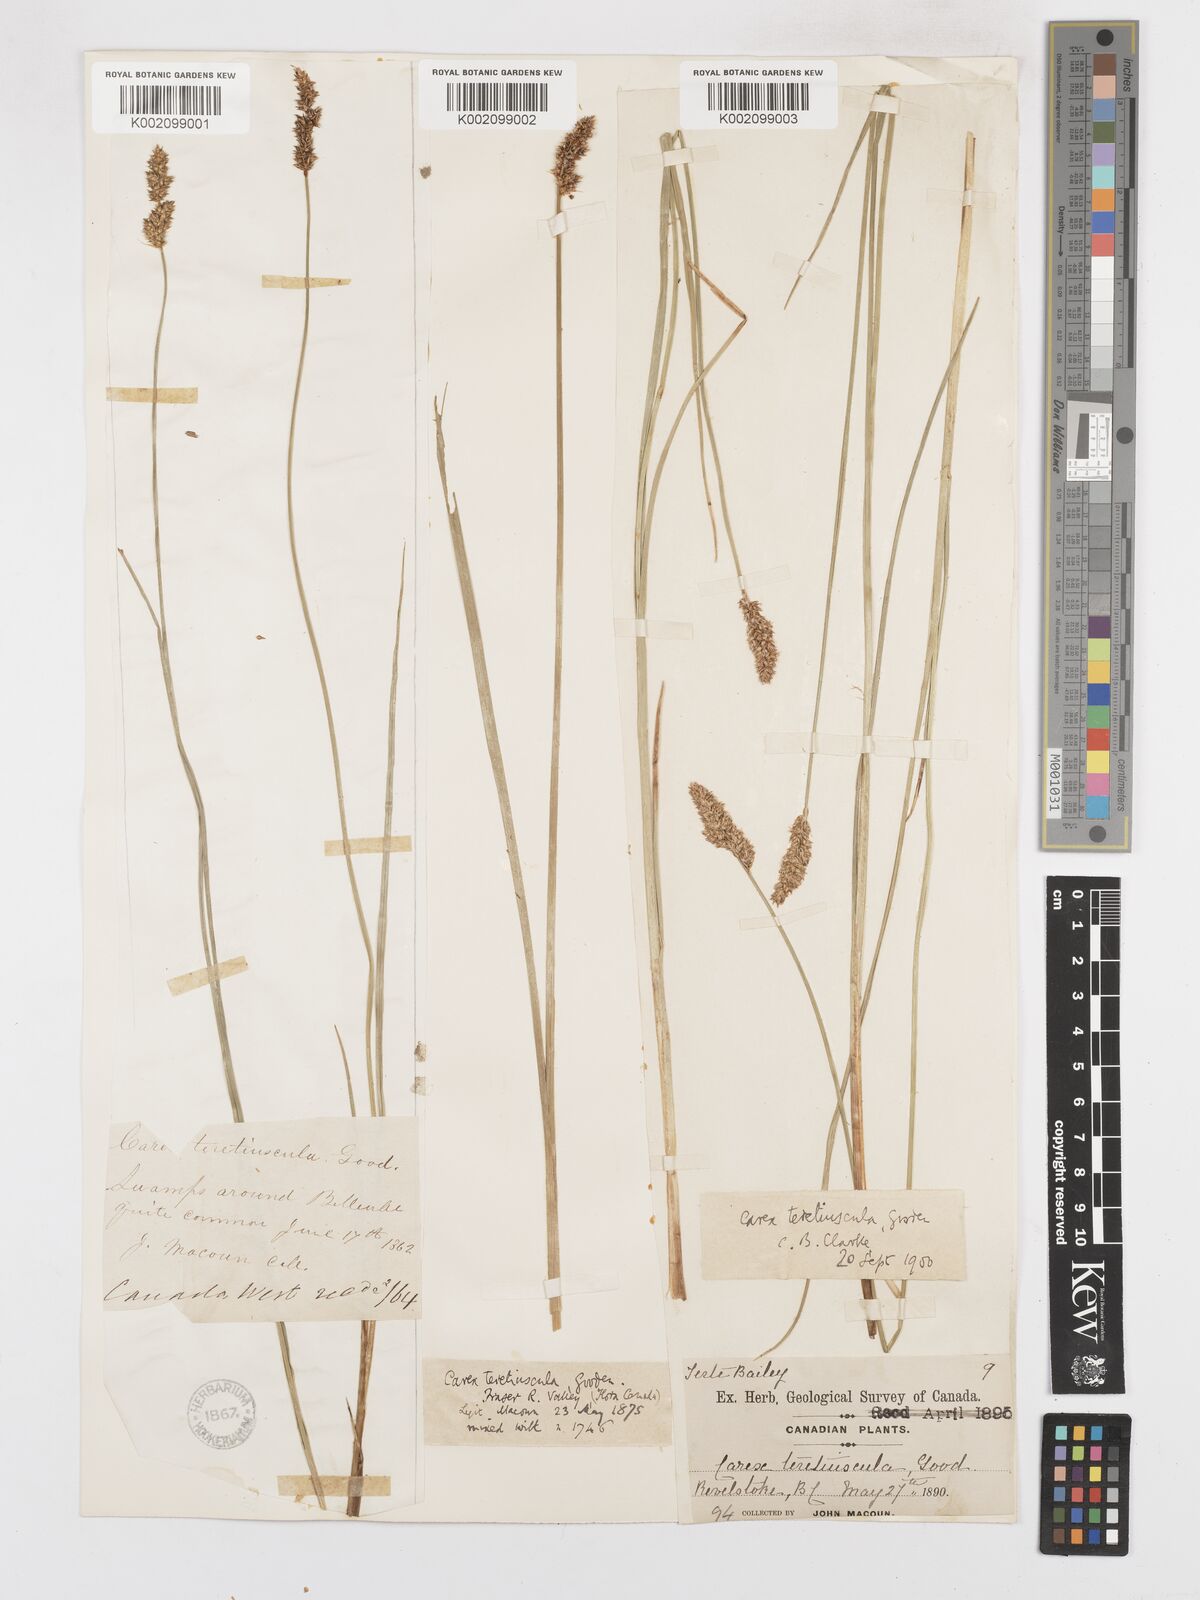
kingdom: Plantae
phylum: Tracheophyta
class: Liliopsida
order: Poales
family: Cyperaceae
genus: Carex
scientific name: Carex diandra
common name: Lesser tussock-sedge
